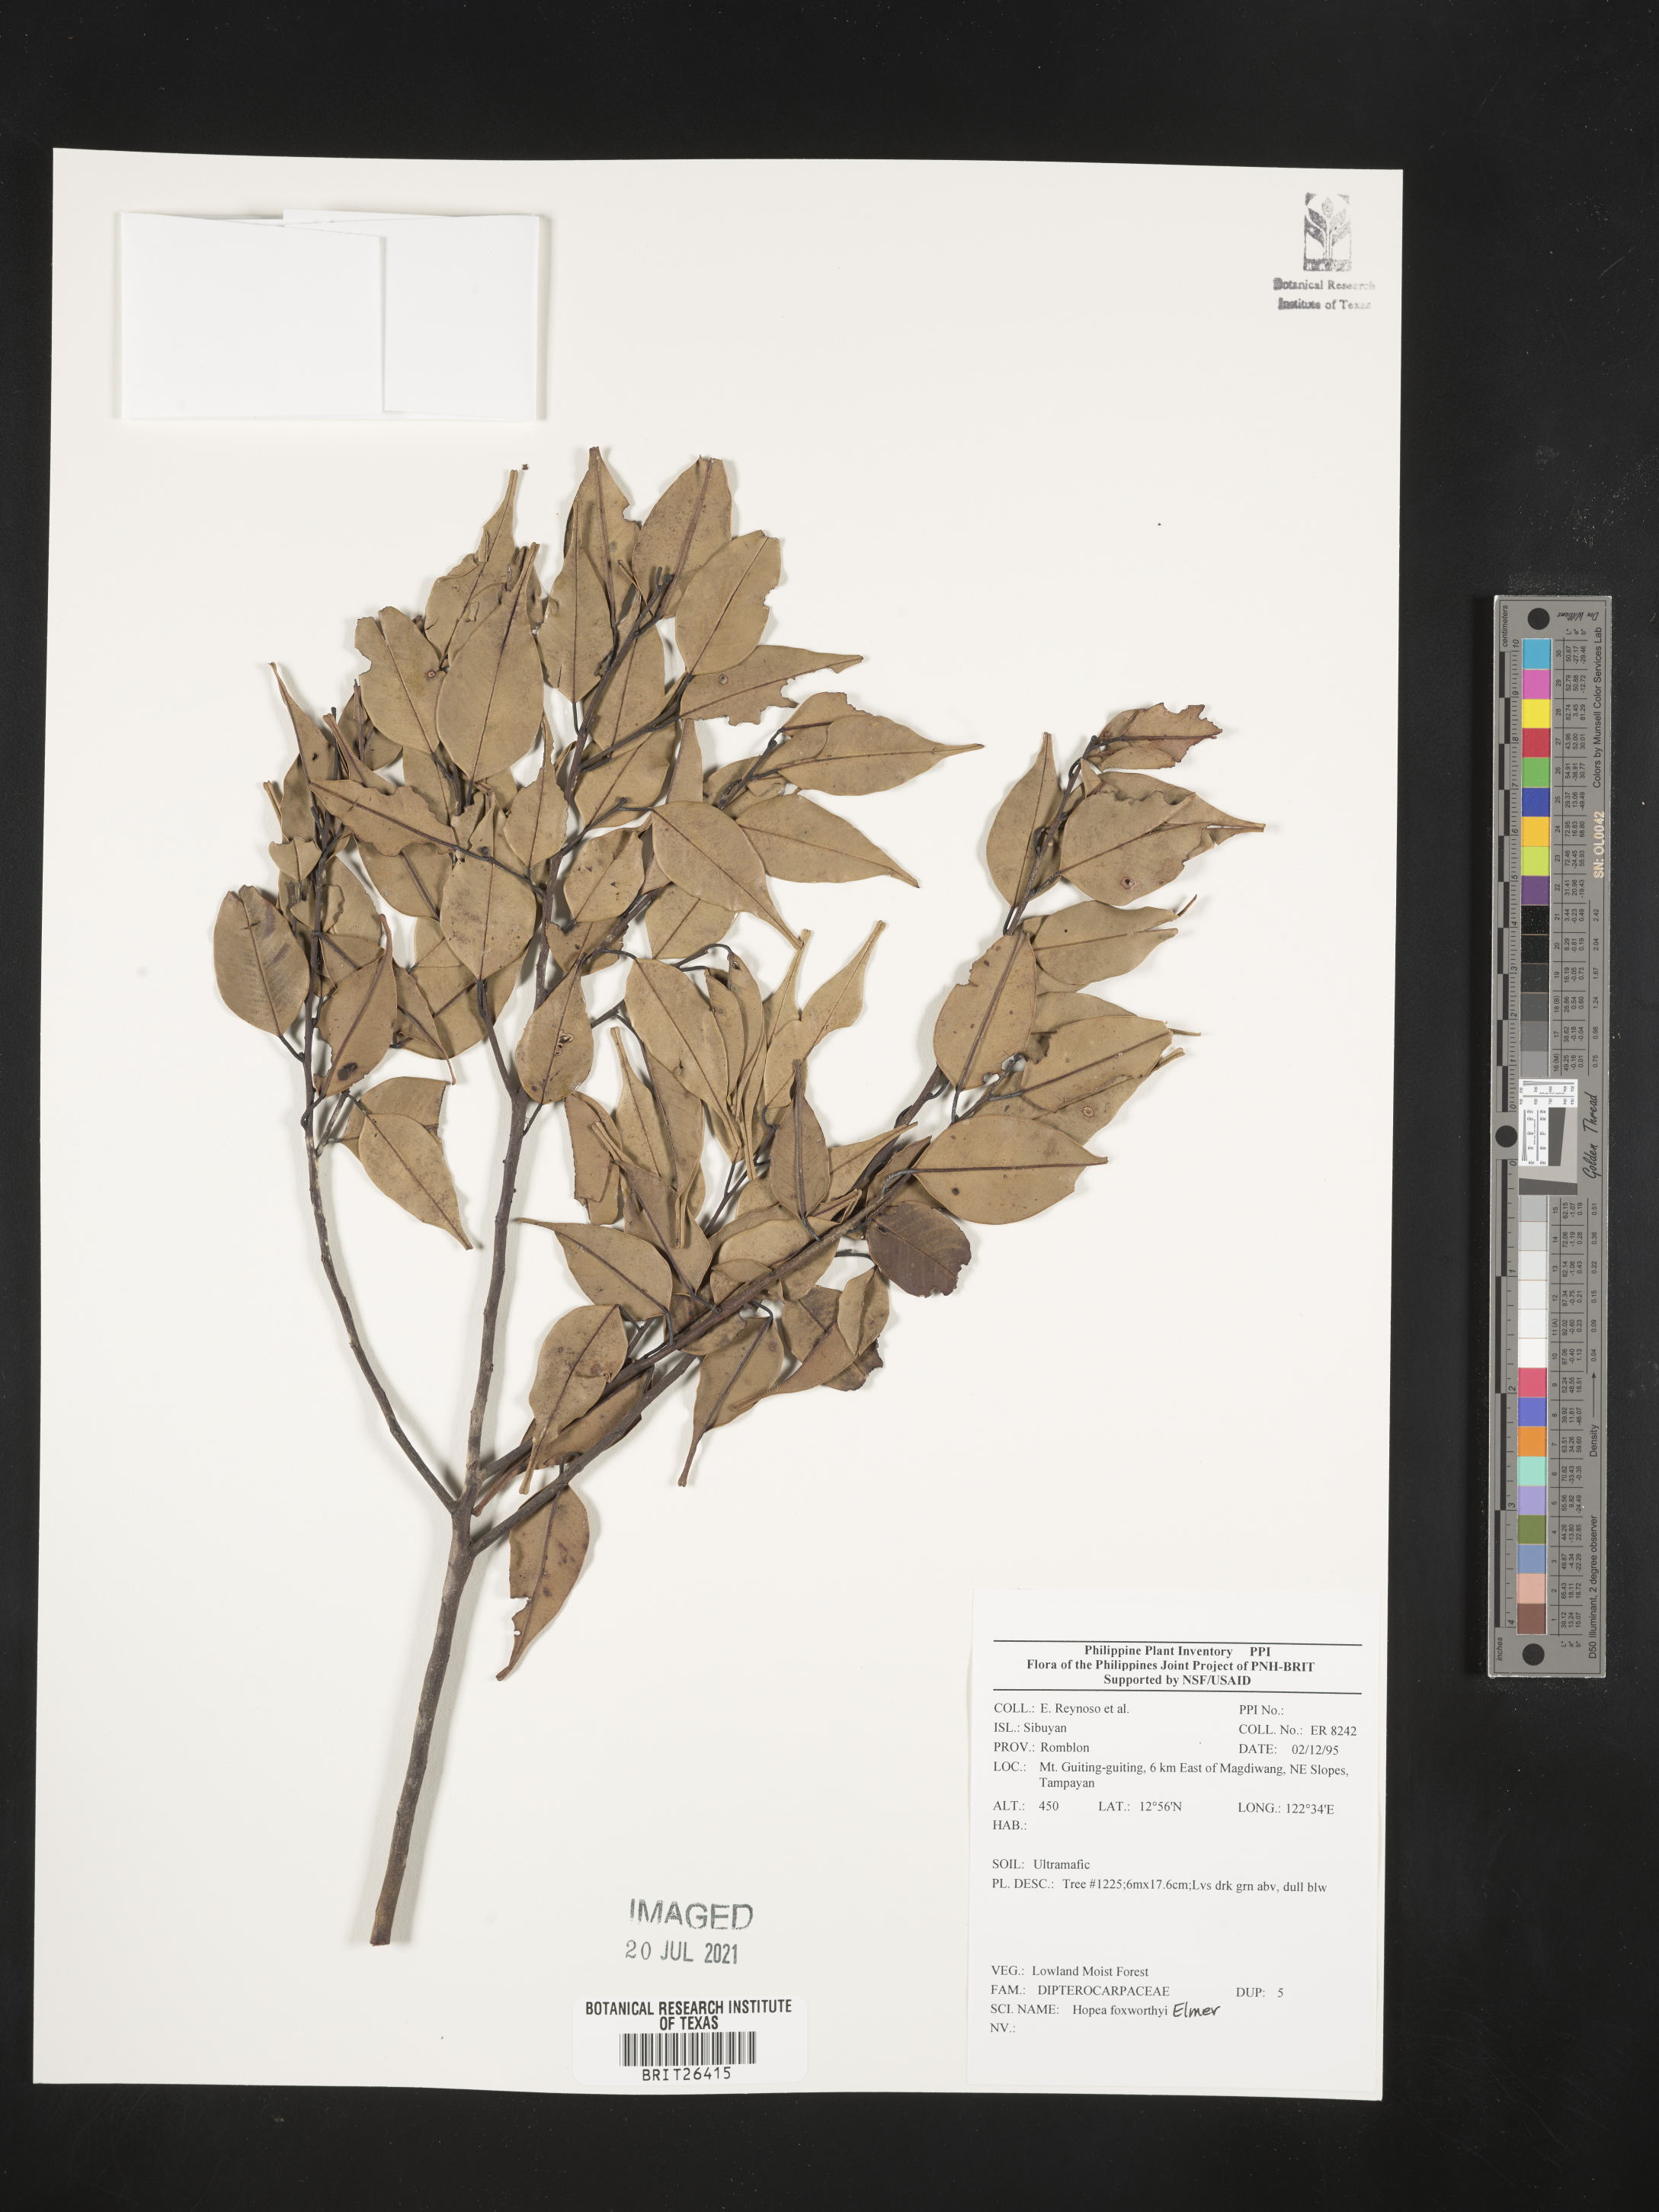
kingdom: Plantae
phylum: Tracheophyta
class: Magnoliopsida
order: Malvales
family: Dipterocarpaceae
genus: Hopea
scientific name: Hopea foxworthyi
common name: Dalingdingan
